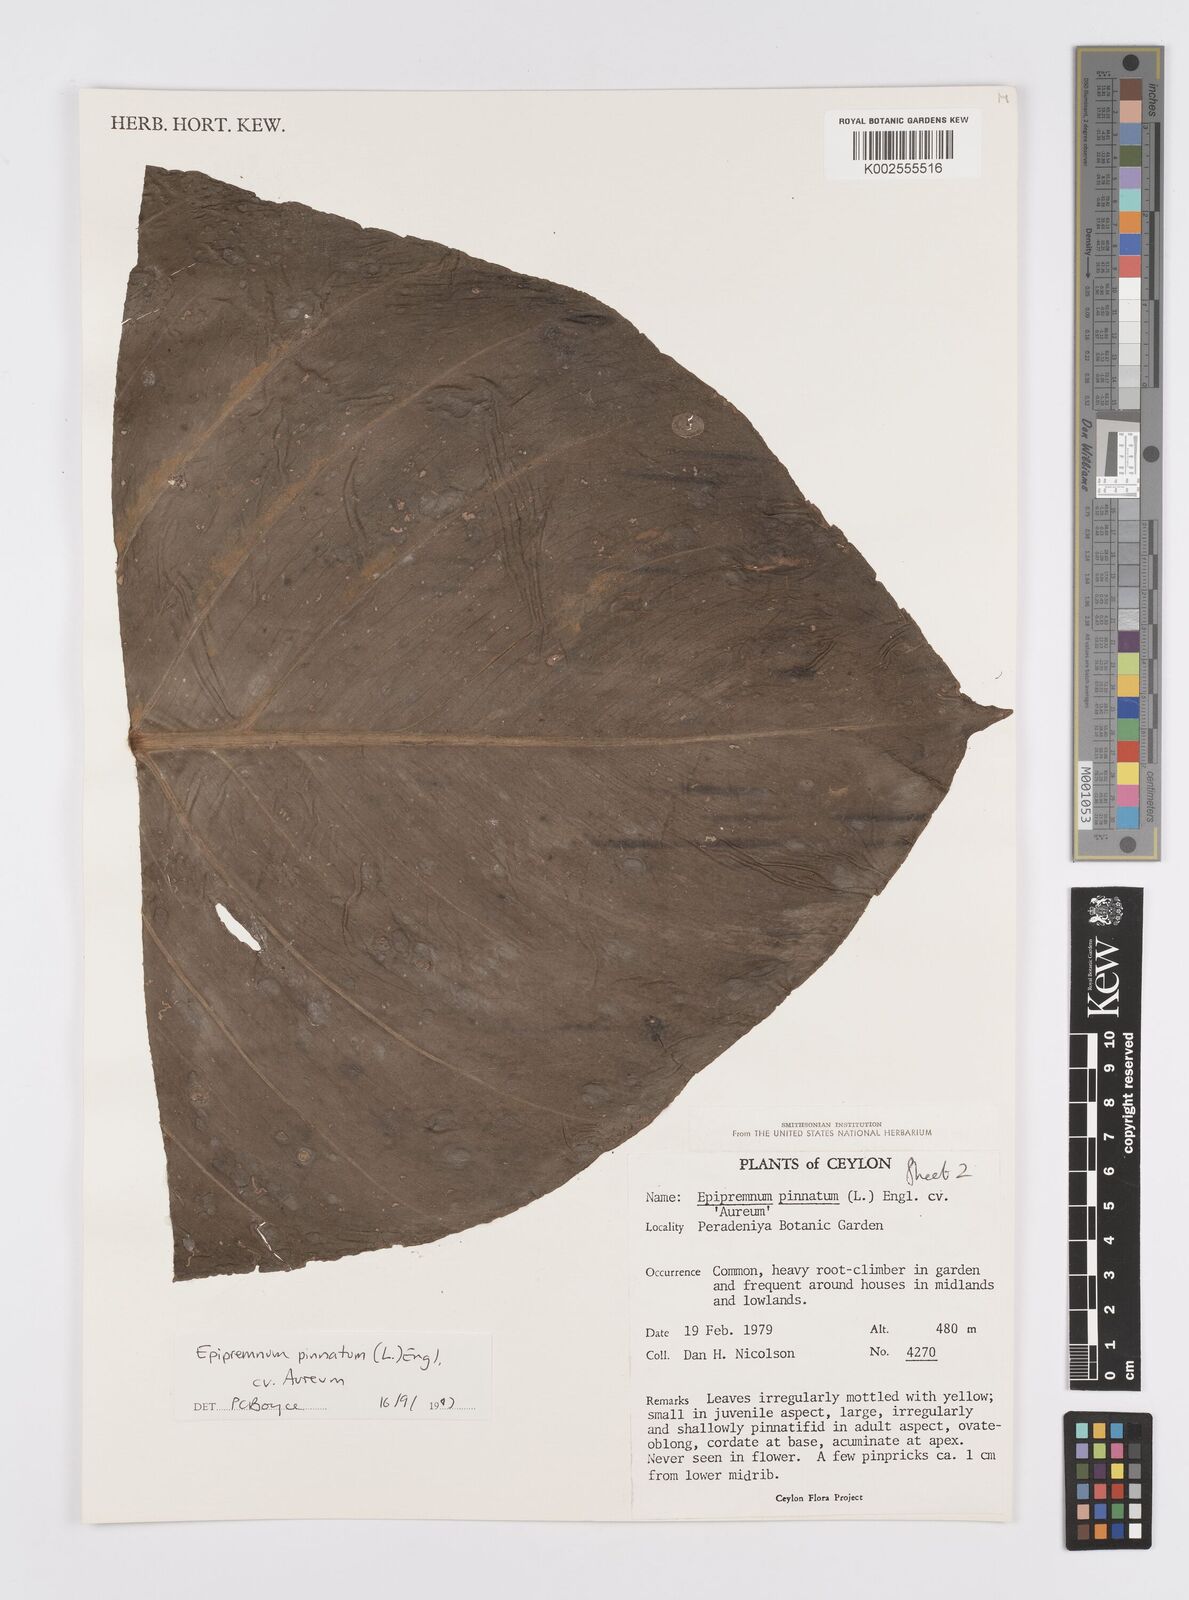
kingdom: Plantae
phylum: Tracheophyta
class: Liliopsida
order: Alismatales
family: Araceae
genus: Epipremnum
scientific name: Epipremnum aureum
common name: Golden hunter's-robe
